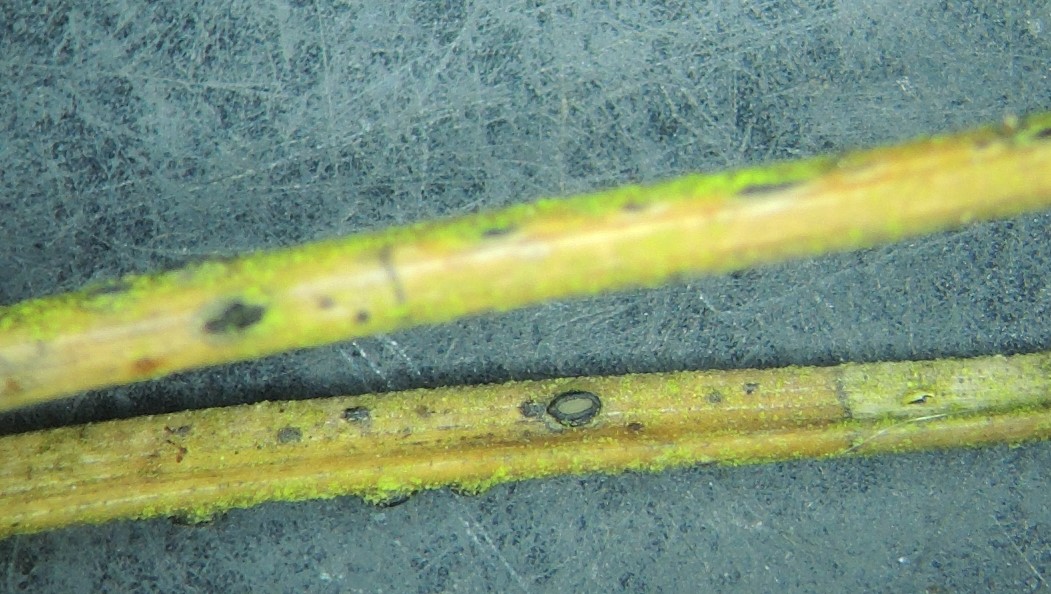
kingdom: Fungi
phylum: Ascomycota
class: Leotiomycetes
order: Rhytismatales
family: Rhytismataceae
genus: Lophodermium
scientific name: Lophodermium pinastri
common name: fyrre-fureplet
